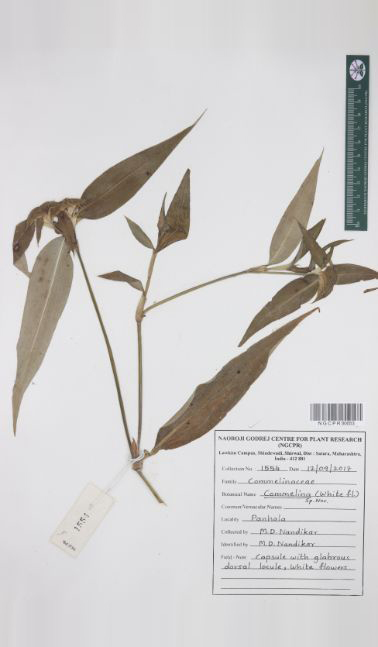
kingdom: Plantae
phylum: Tracheophyta
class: Liliopsida
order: Commelinales
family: Commelinaceae
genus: Commelina
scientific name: Commelina undulata
